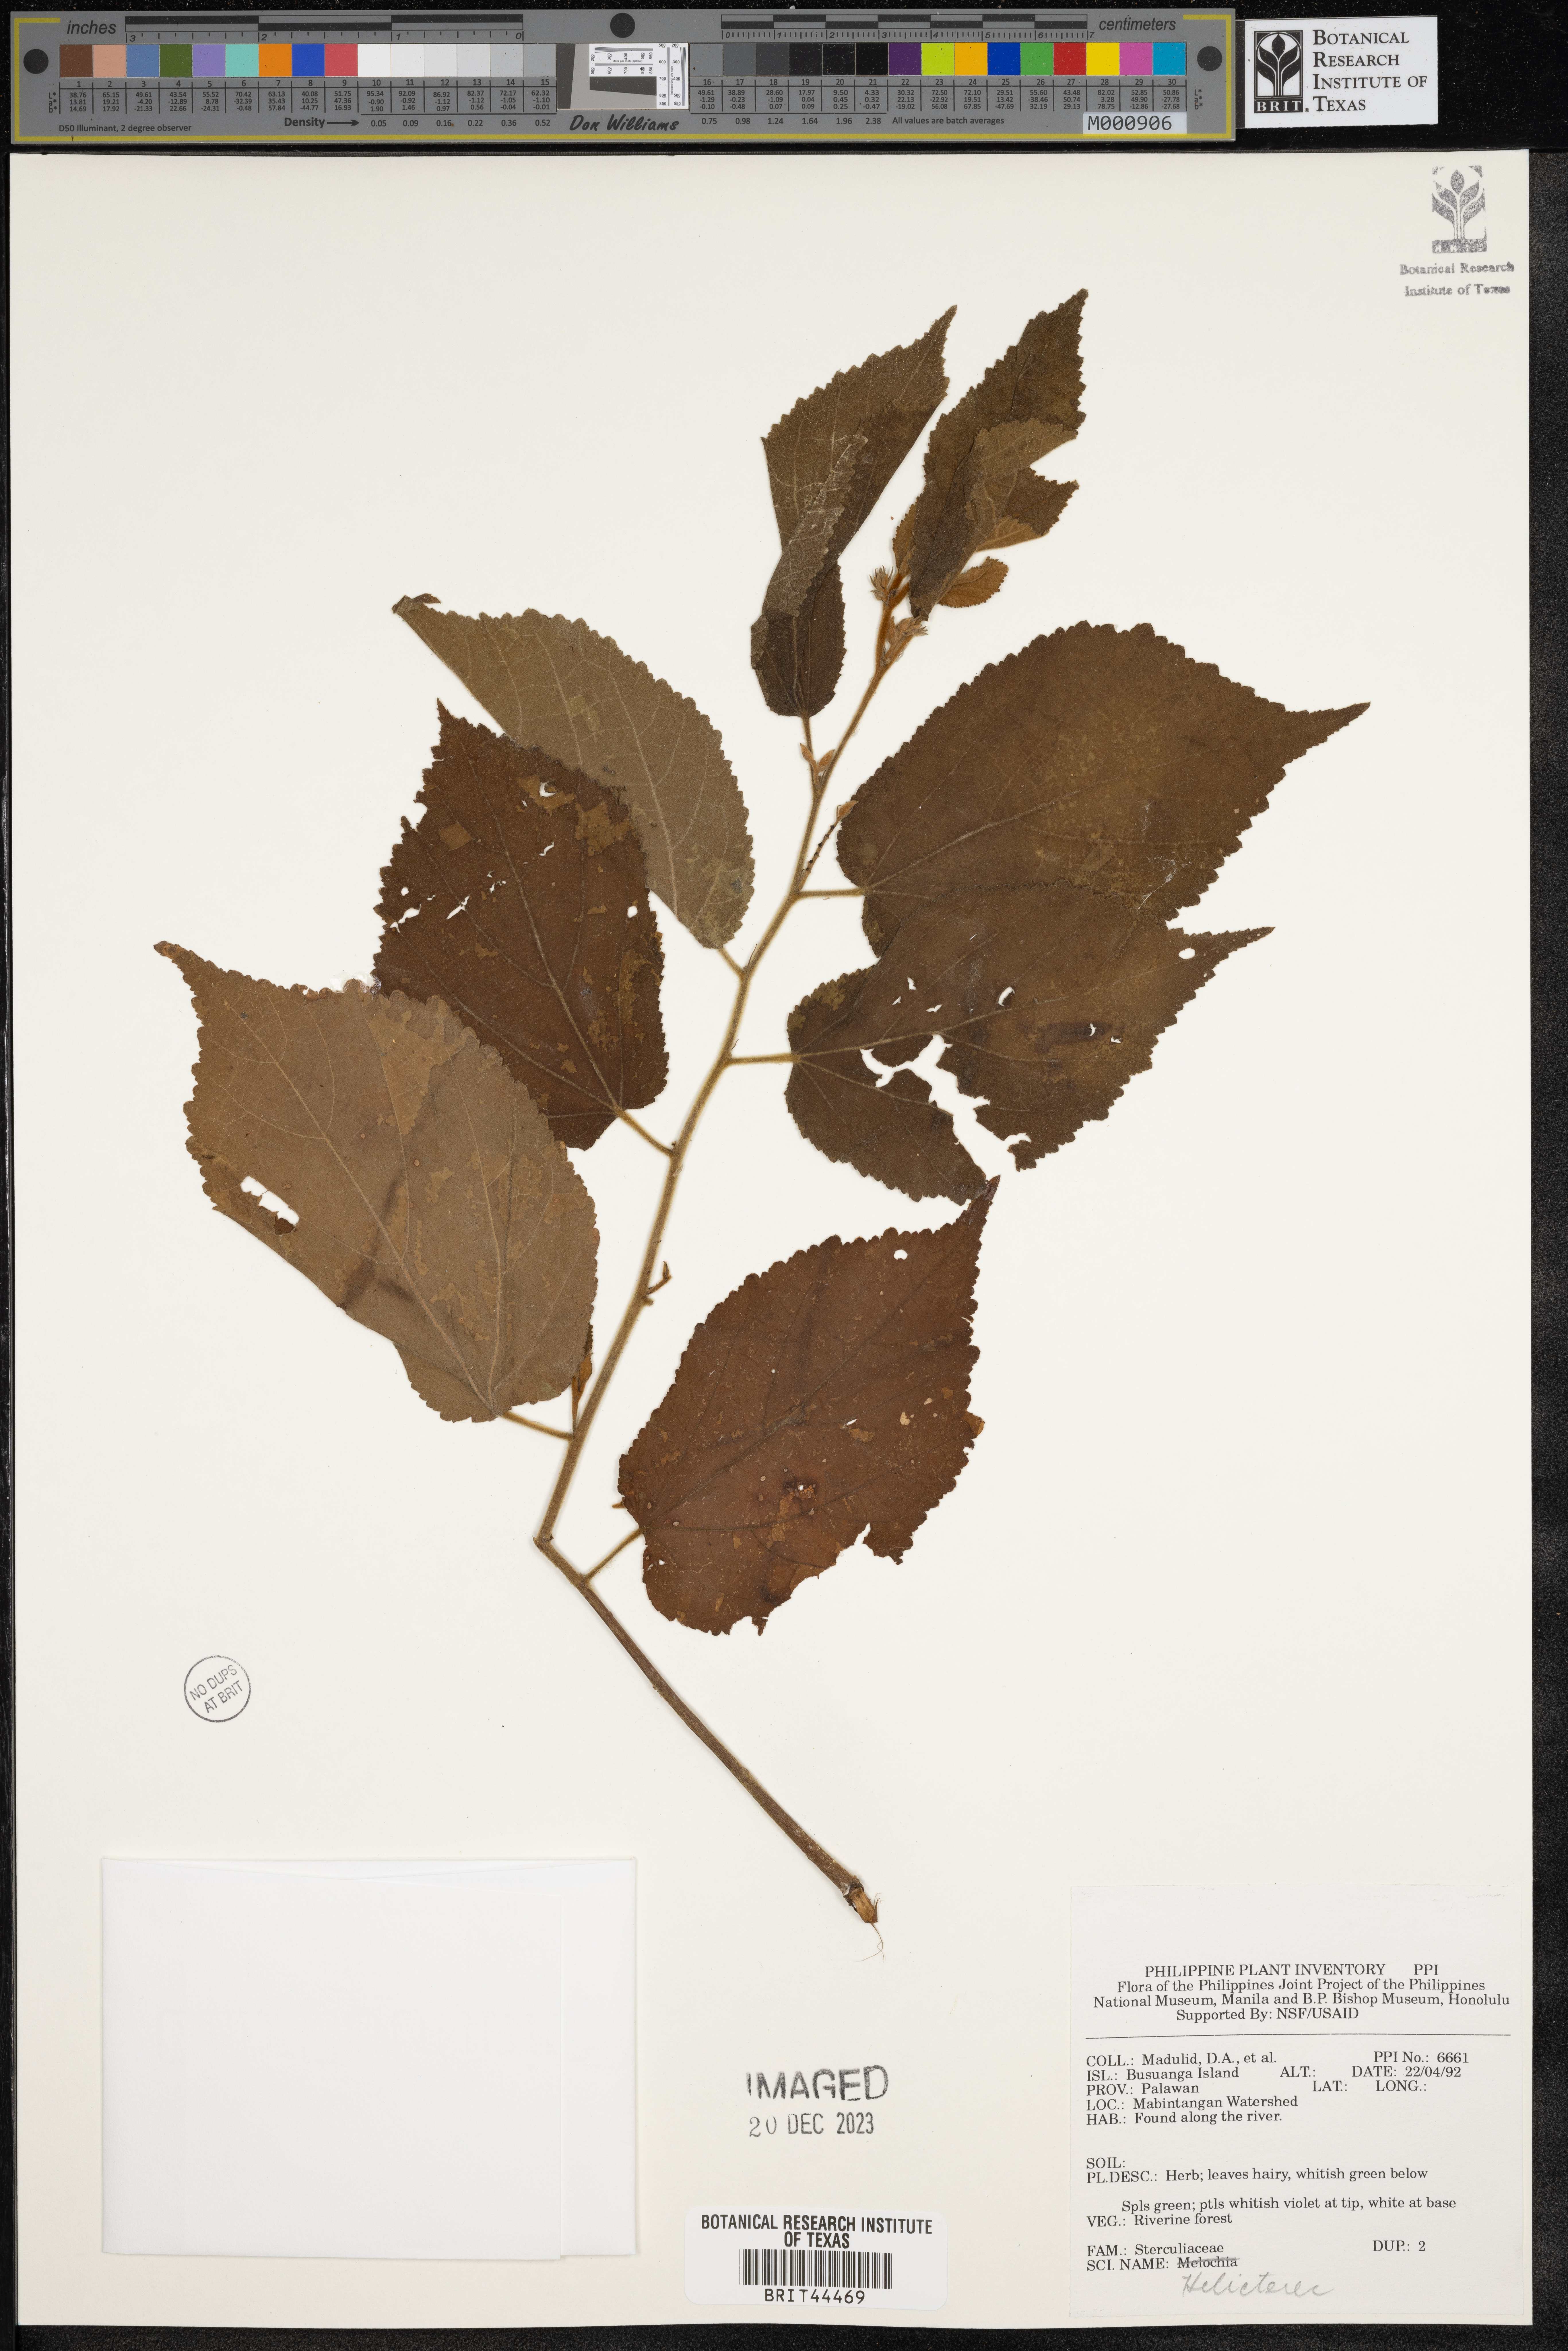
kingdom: Plantae
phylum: Tracheophyta
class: Magnoliopsida
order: Malvales
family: Malvaceae
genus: Helicteres
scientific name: Helicteres
